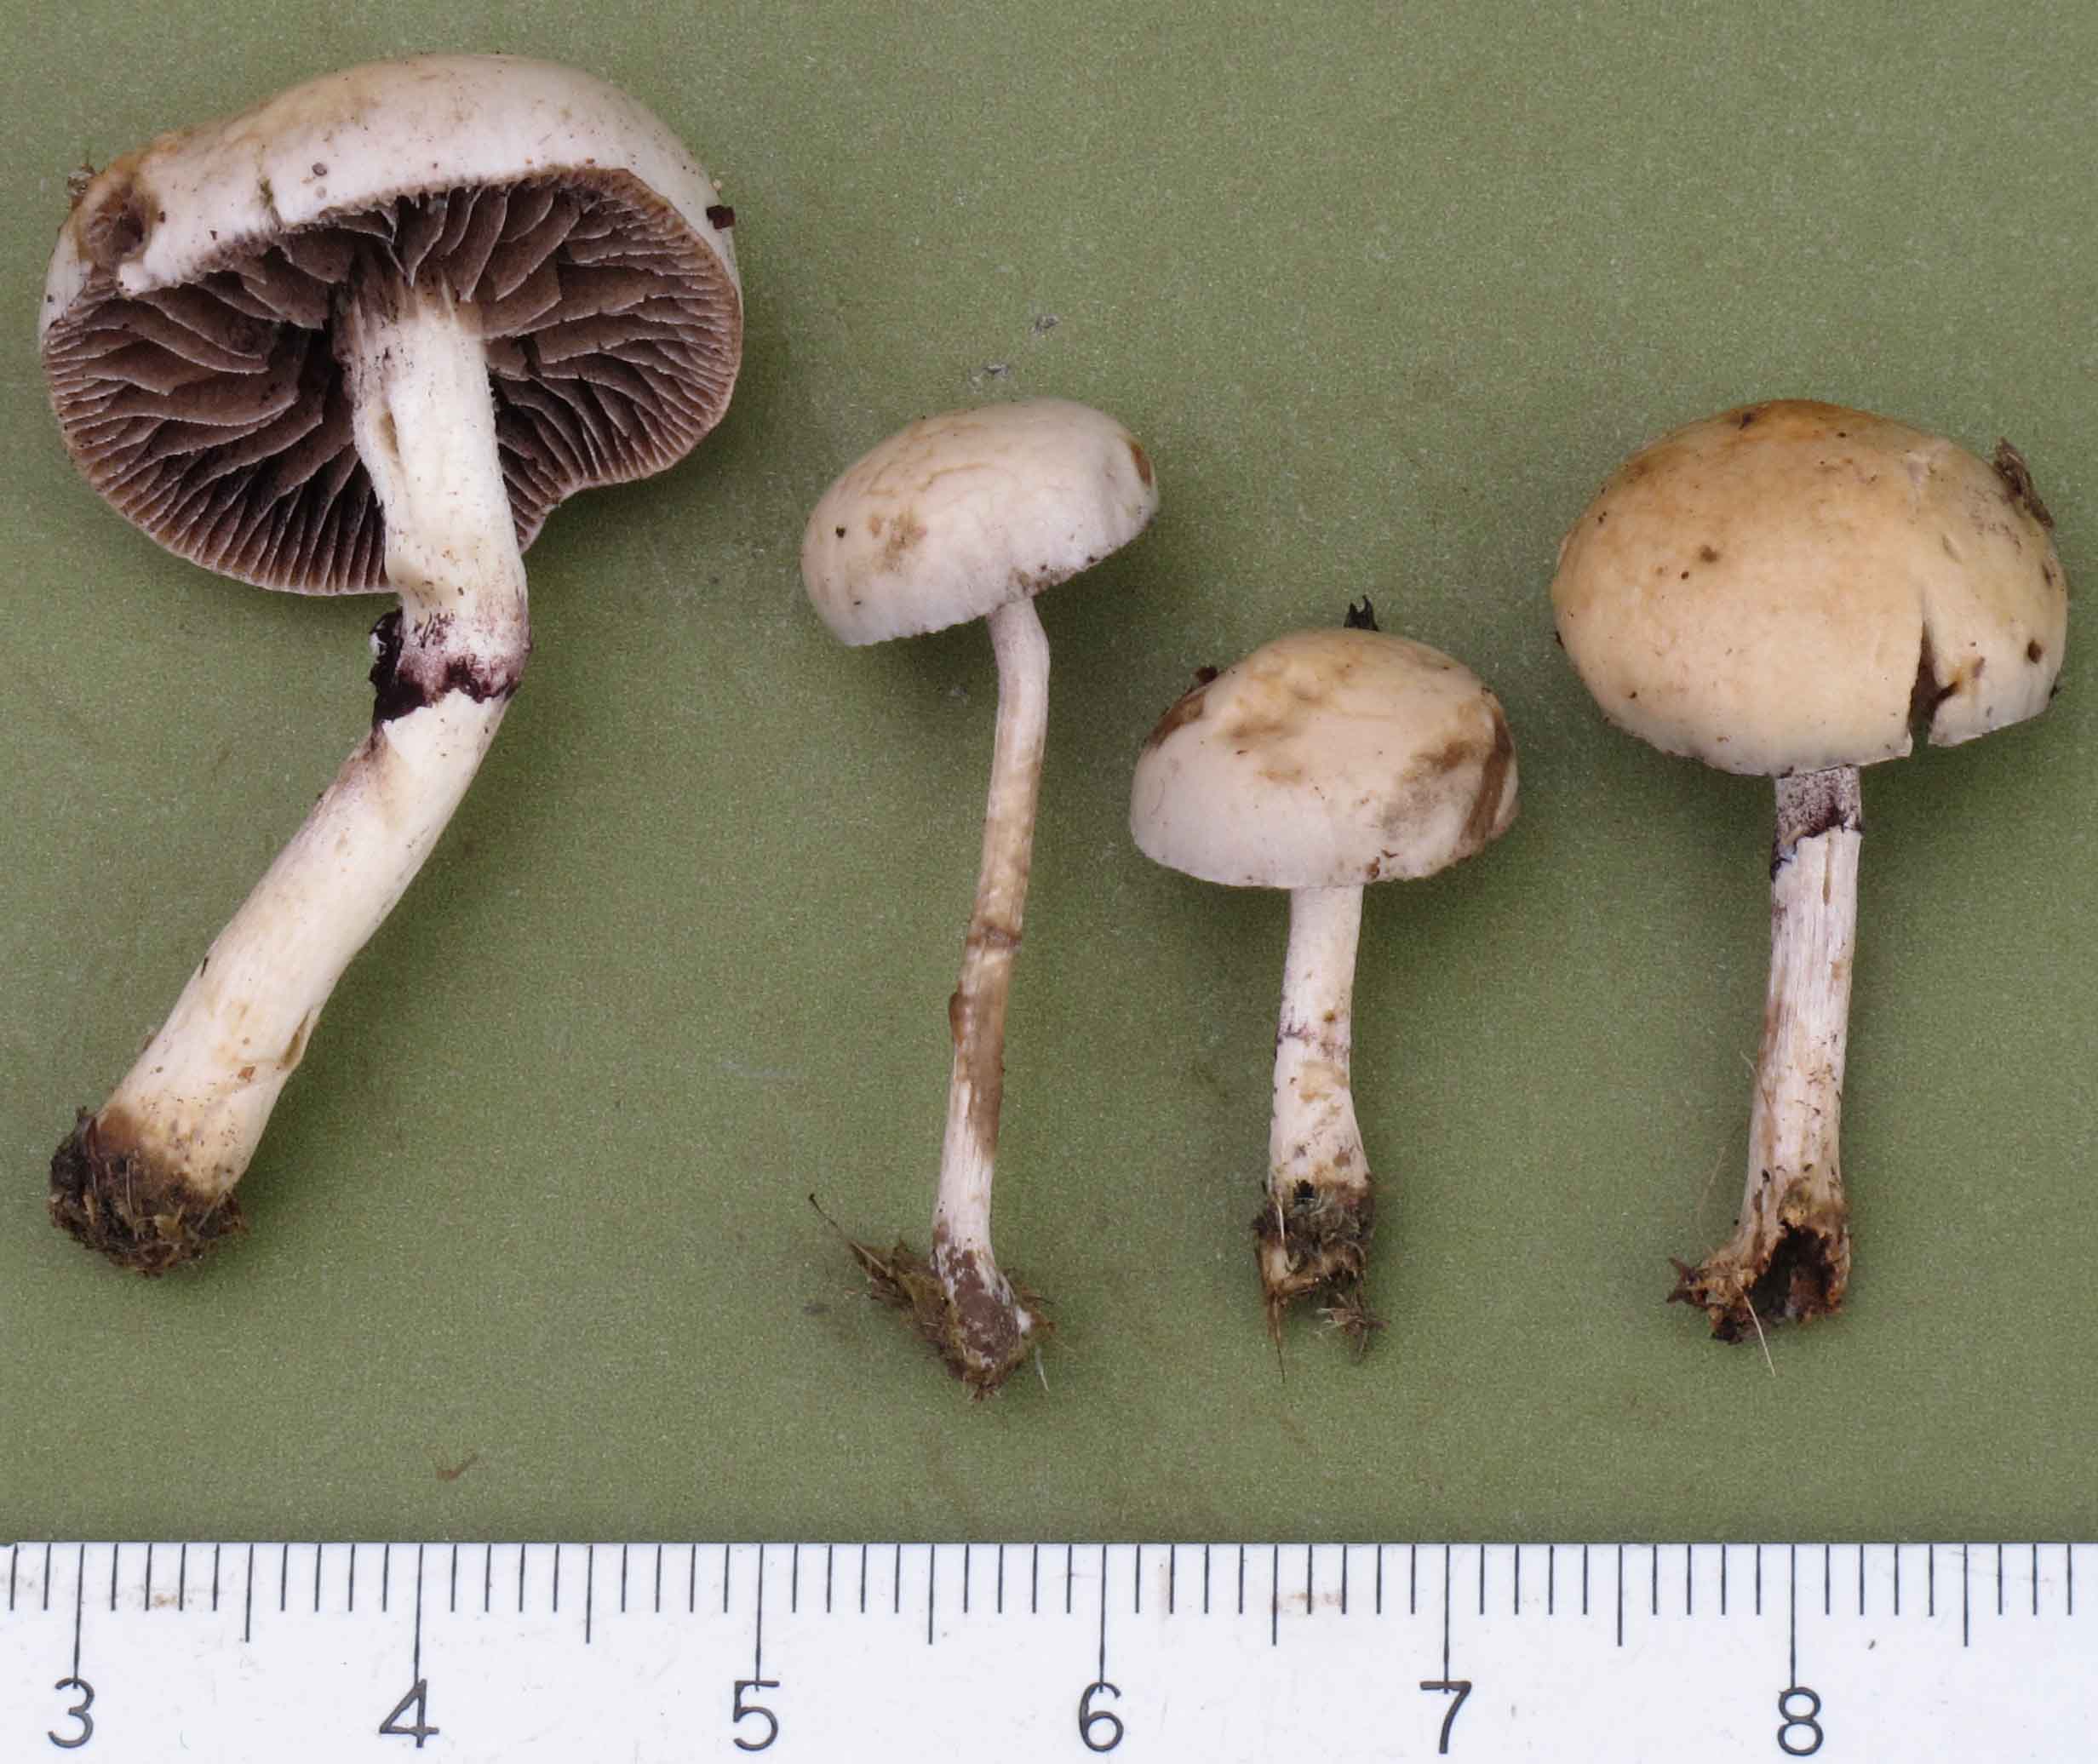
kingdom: Fungi
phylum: Basidiomycota
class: Agaricomycetes
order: Agaricales
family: Strophariaceae
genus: Deconica
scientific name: Deconica merdaria
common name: møg-stråhat
